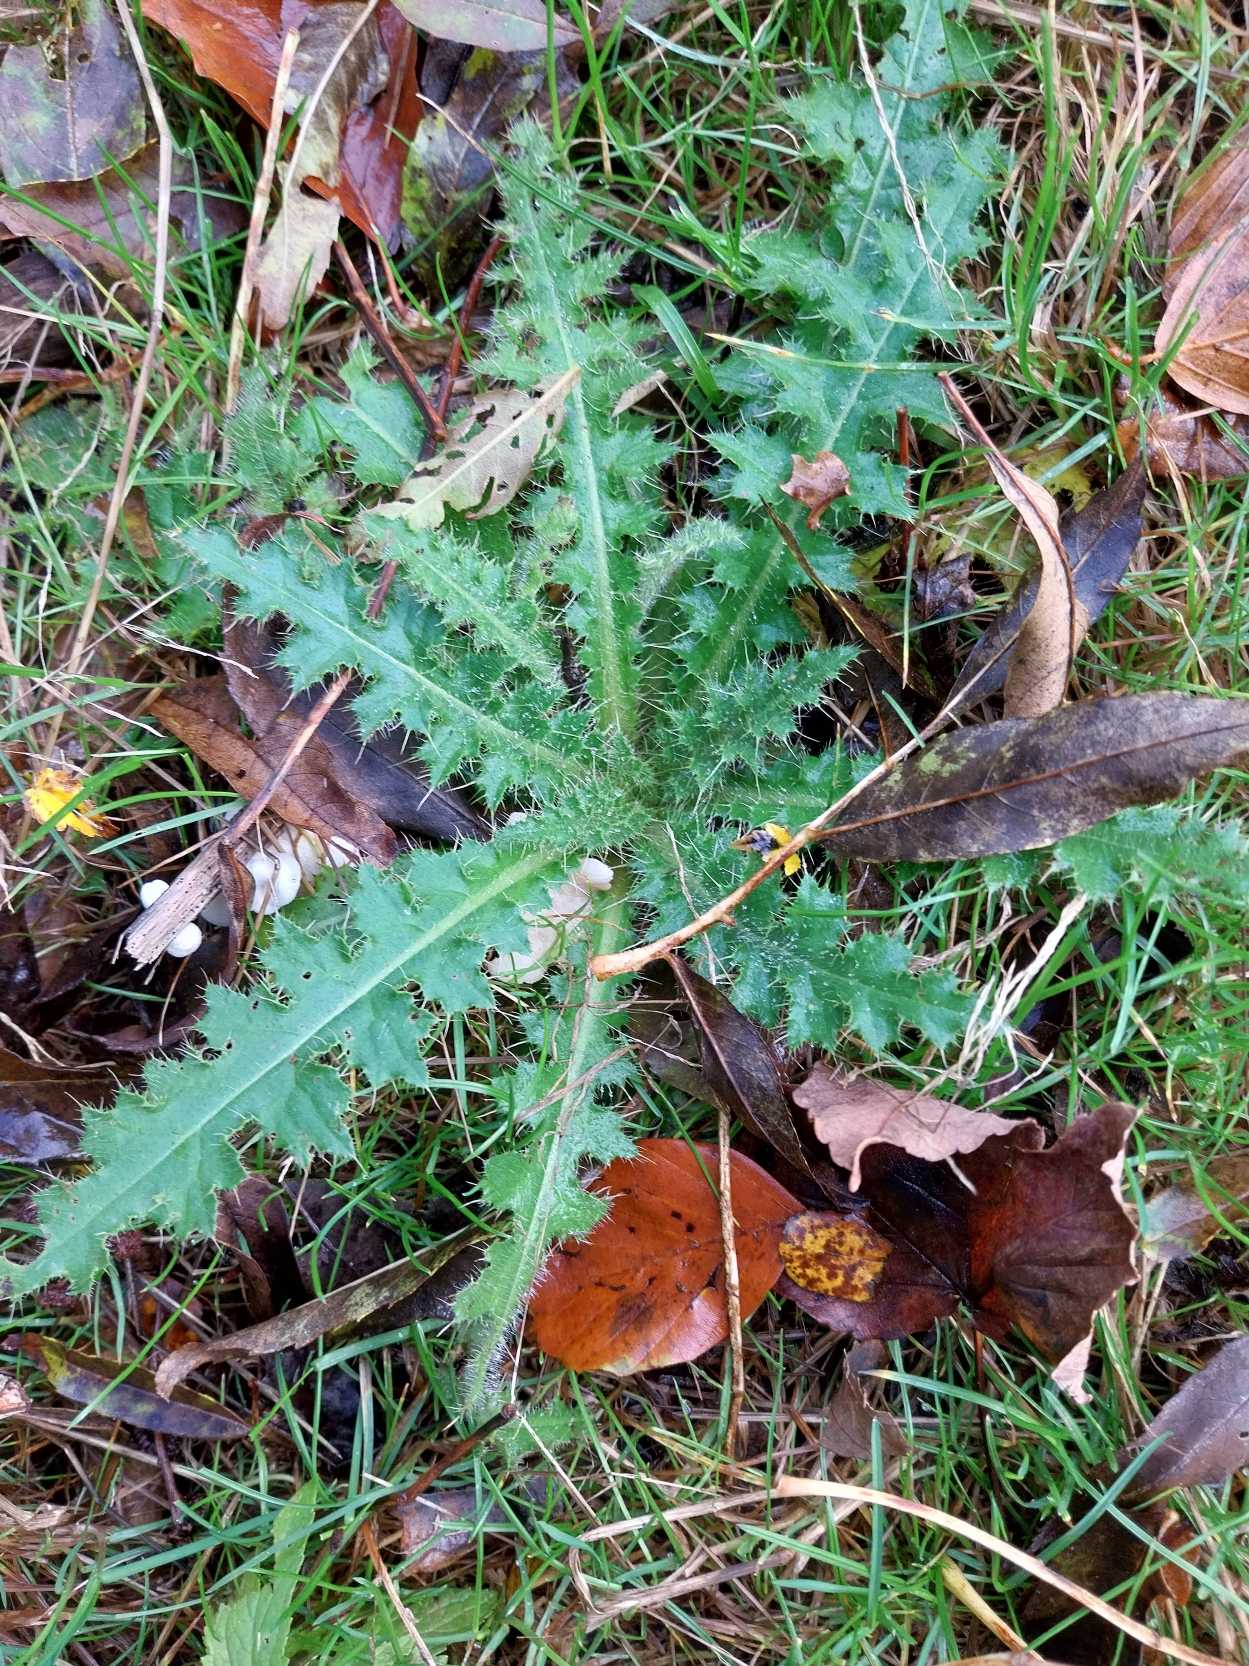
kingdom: Plantae
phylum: Tracheophyta
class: Magnoliopsida
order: Asterales
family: Asteraceae
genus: Cirsium
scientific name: Cirsium palustre
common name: Kær-tidsel
